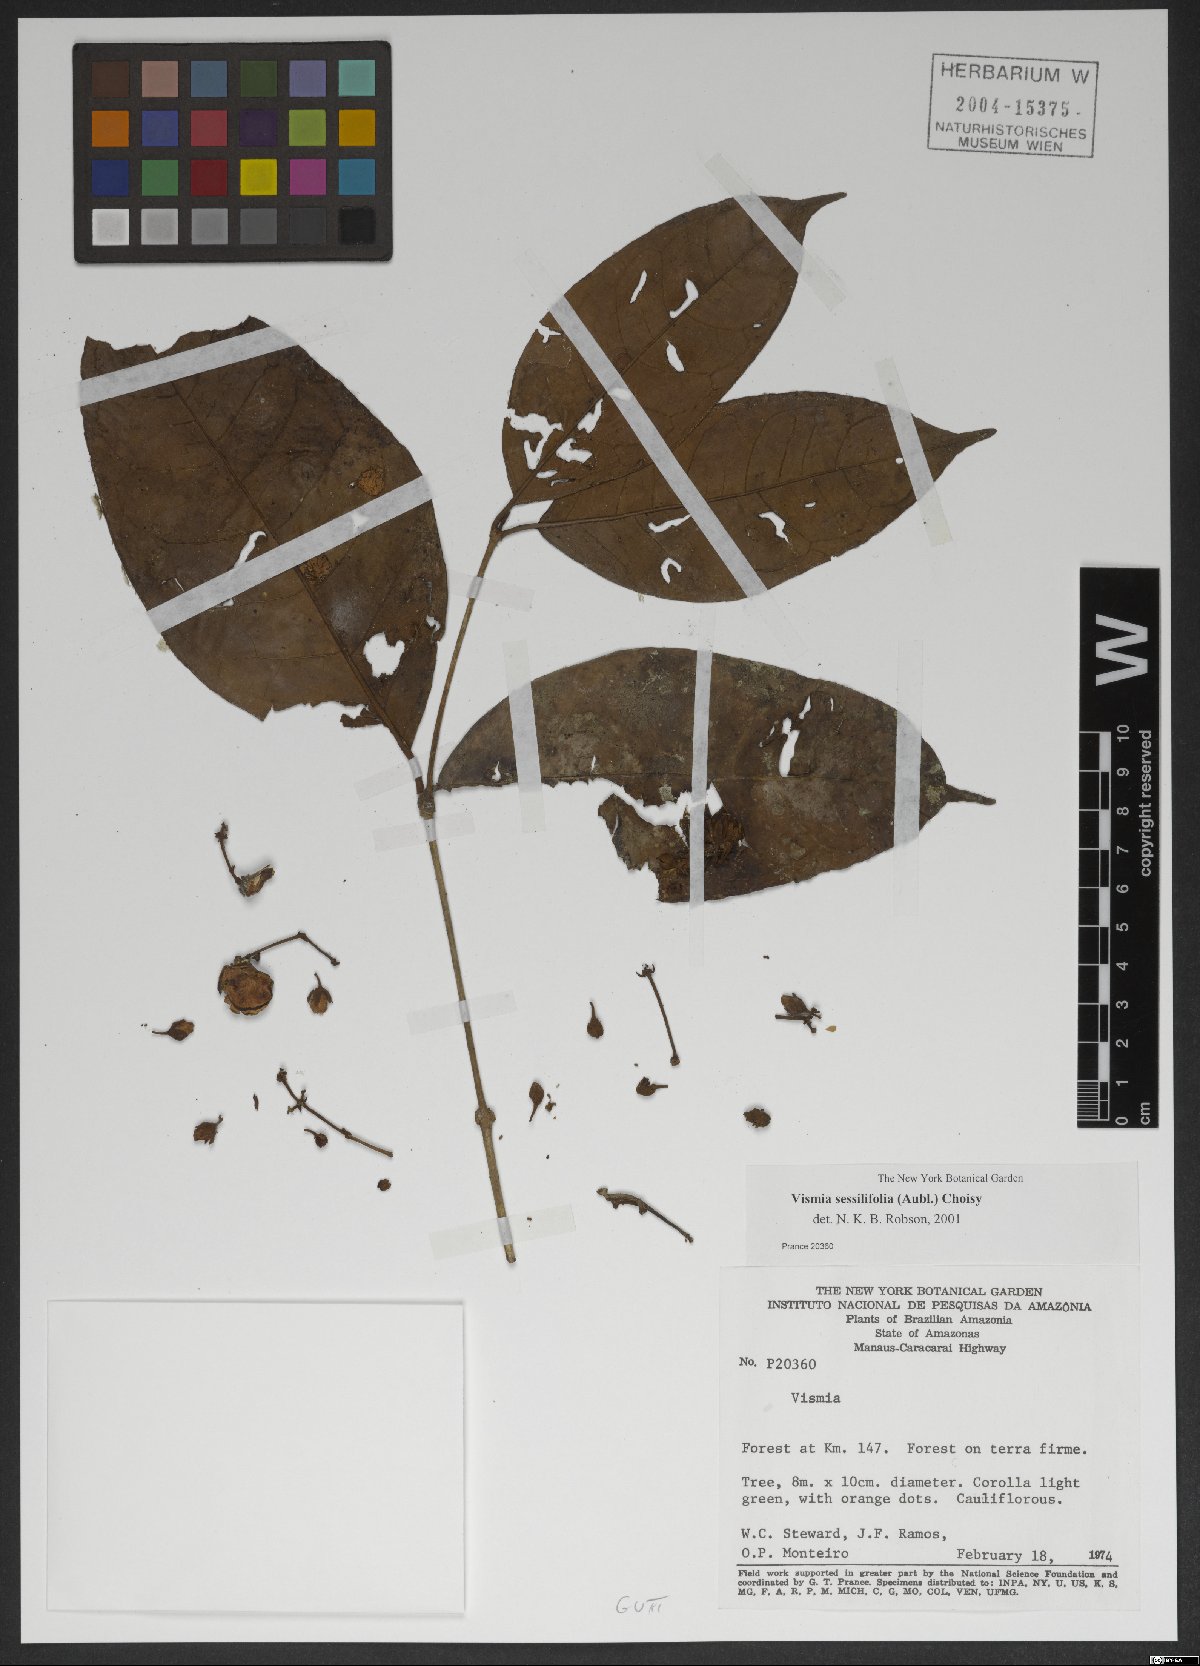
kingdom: Plantae
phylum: Tracheophyta
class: Magnoliopsida
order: Malpighiales
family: Hypericaceae
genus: Vismia
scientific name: Vismia sprucei
